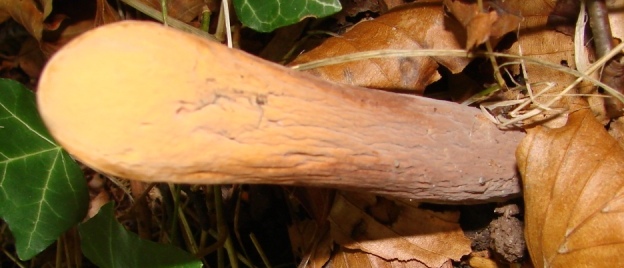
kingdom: Fungi
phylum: Basidiomycota
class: Agaricomycetes
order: Gomphales
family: Clavariadelphaceae
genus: Clavariadelphus
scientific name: Clavariadelphus pistillaris
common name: herkules-kæmpekølle
